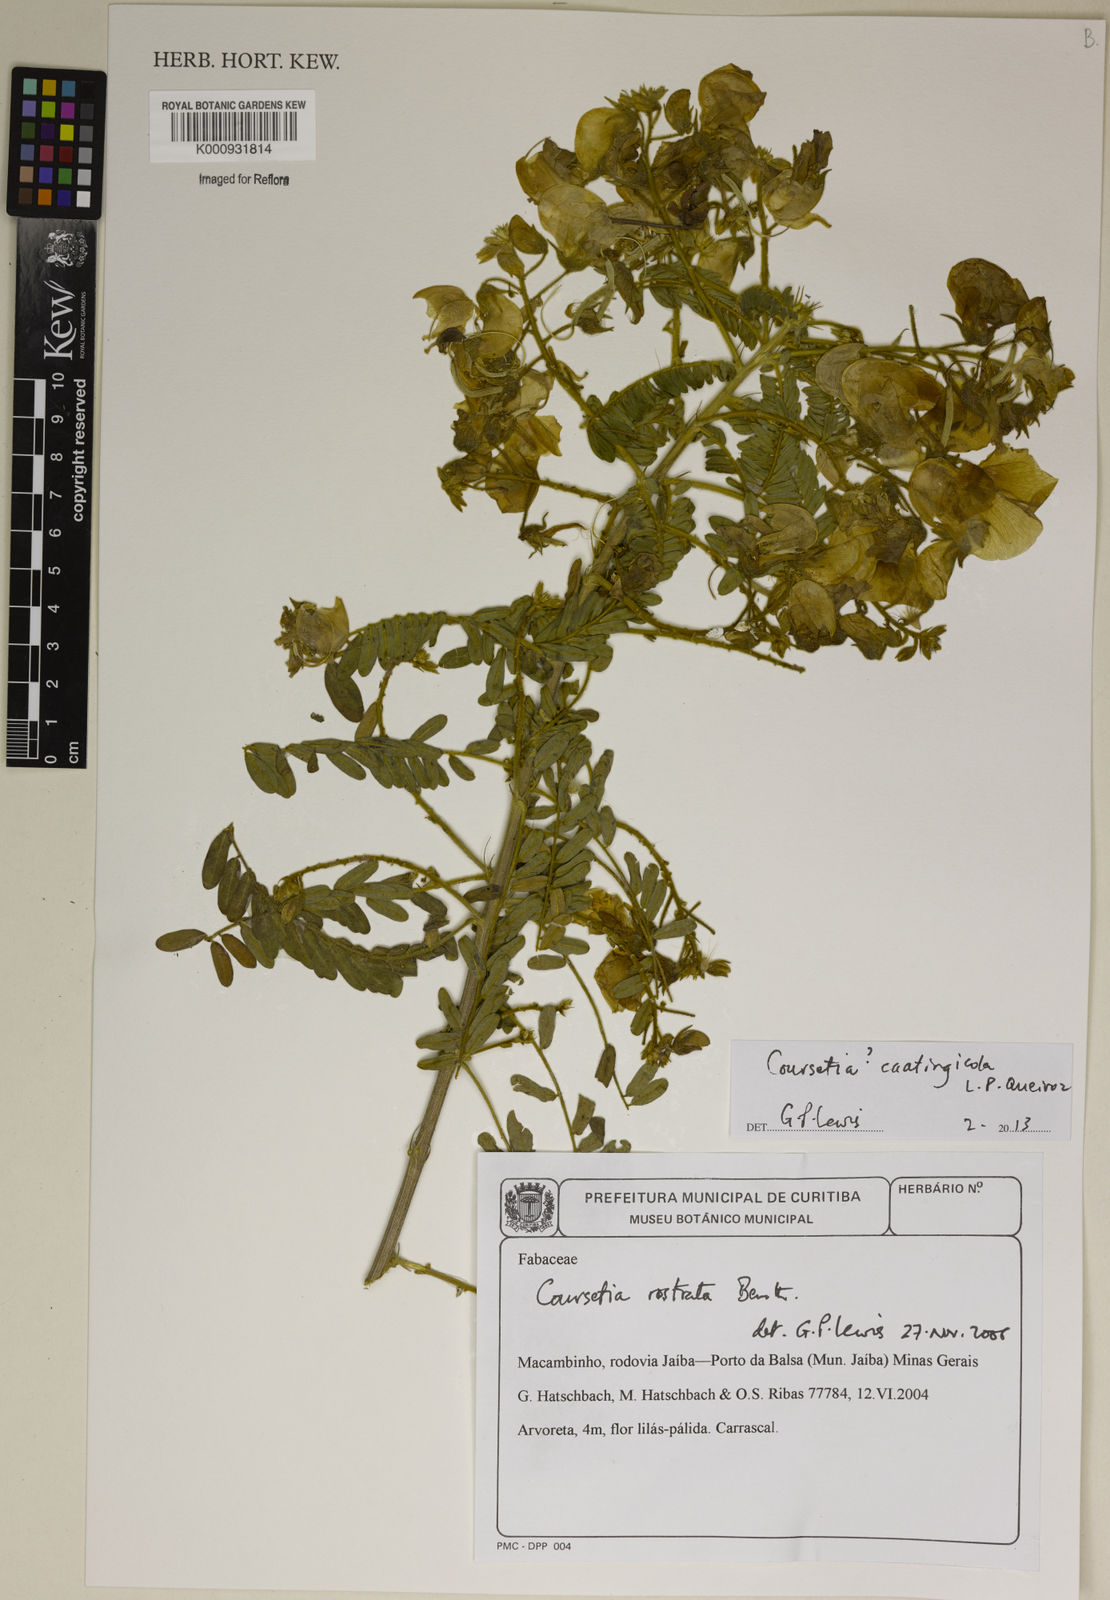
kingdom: Plantae
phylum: Tracheophyta
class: Magnoliopsida
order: Fabales
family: Fabaceae
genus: Coursetia
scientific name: Coursetia caatingicola
